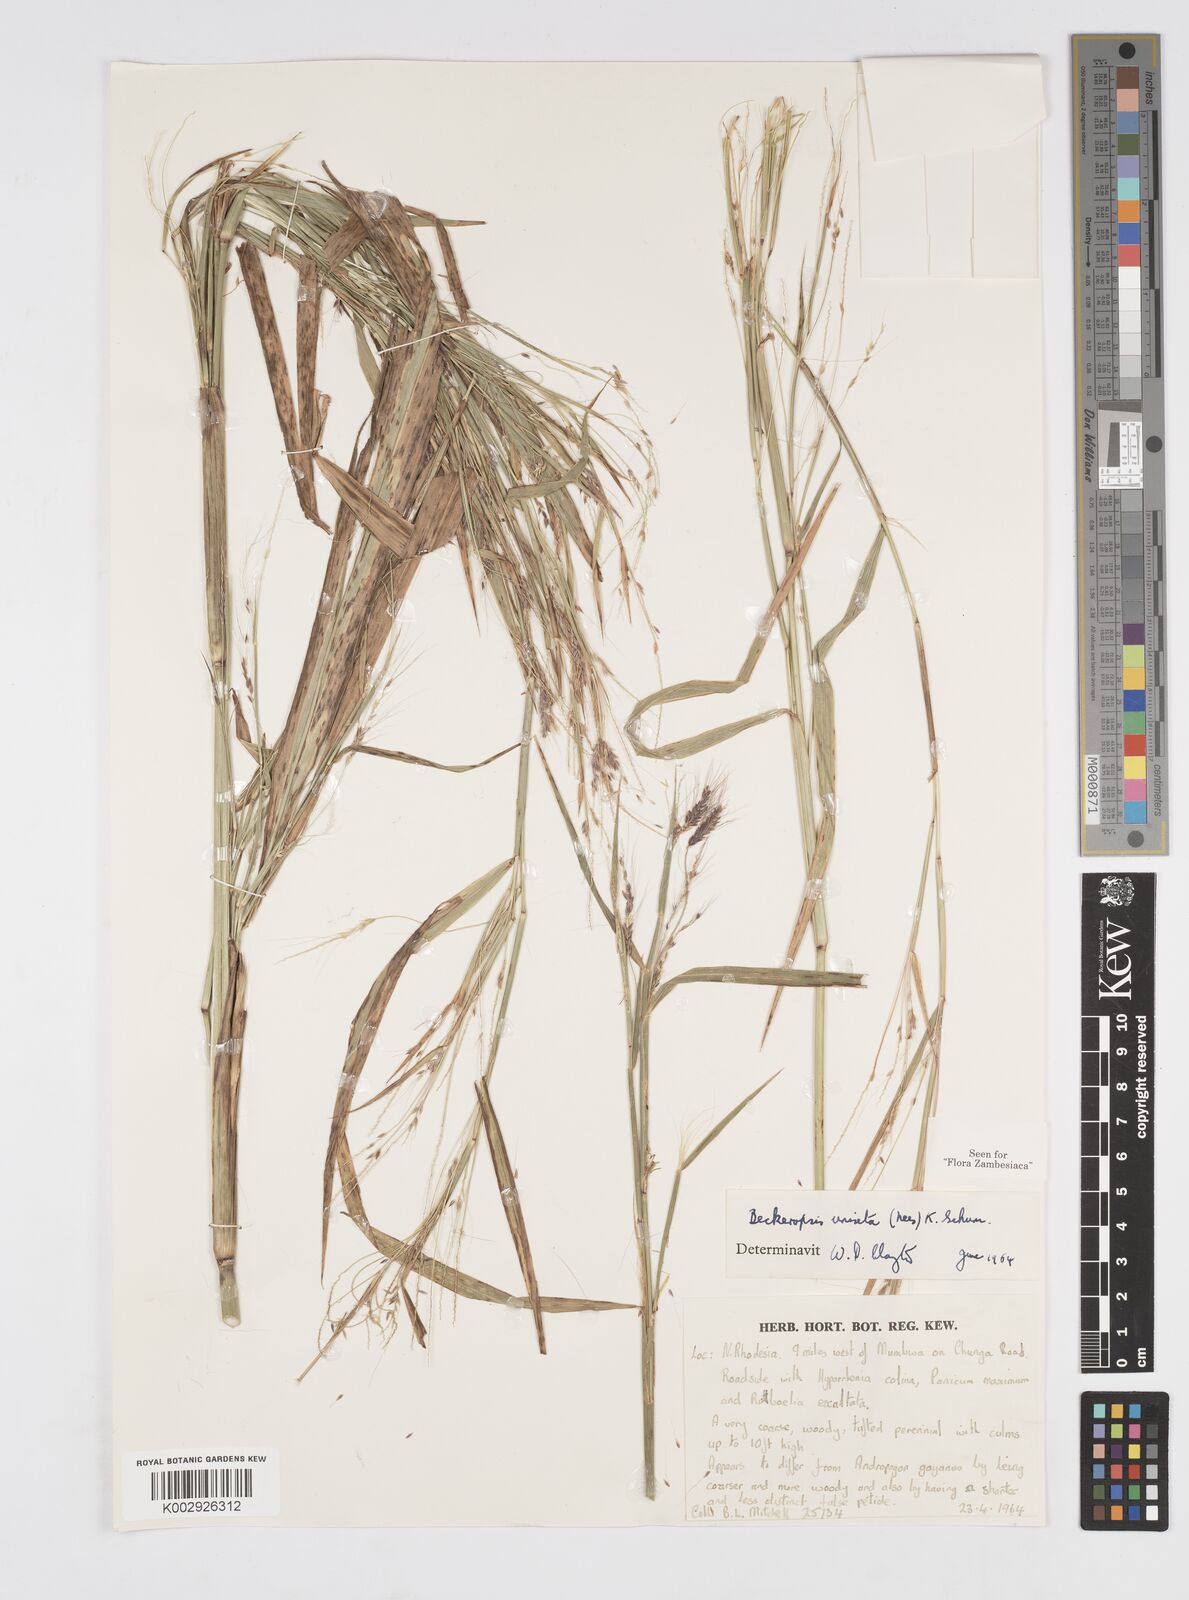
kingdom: Plantae
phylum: Tracheophyta
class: Liliopsida
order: Poales
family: Poaceae
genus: Cenchrus
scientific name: Cenchrus unisetus
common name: Natal grass
